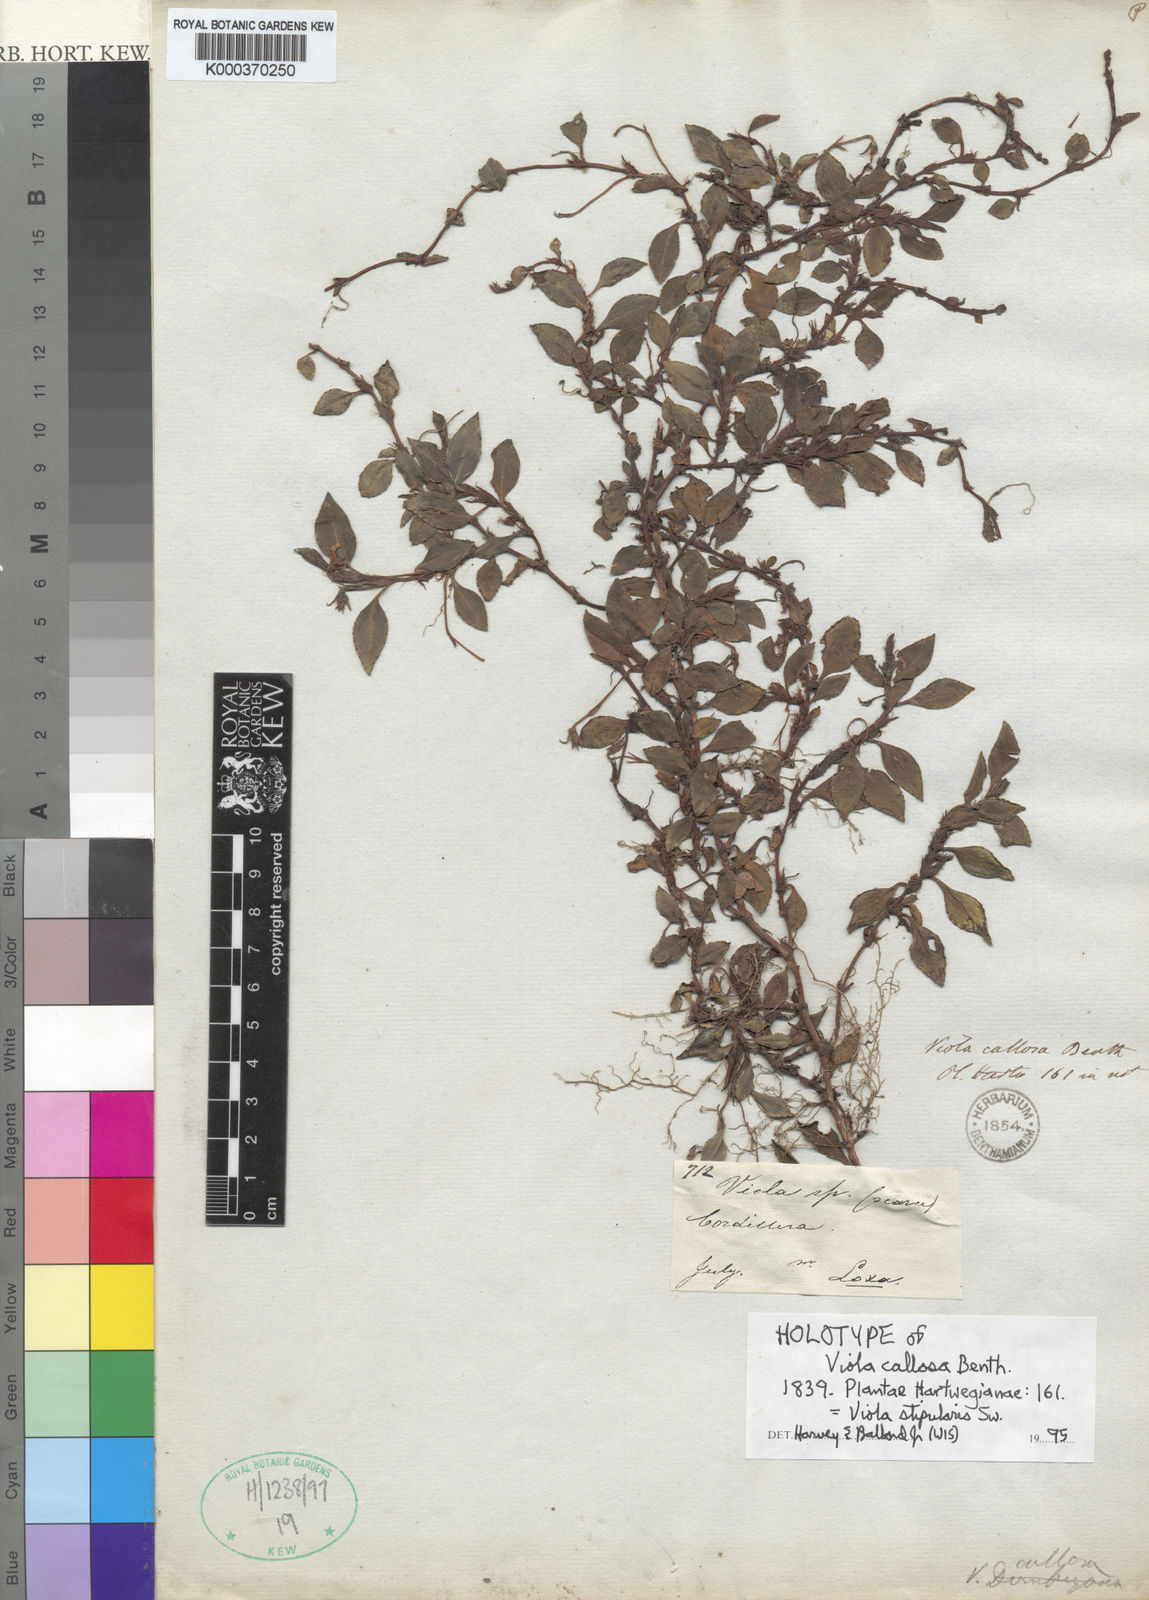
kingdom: Plantae
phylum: Tracheophyta
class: Magnoliopsida
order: Malpighiales
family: Violaceae
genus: Viola
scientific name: Viola stipularis
